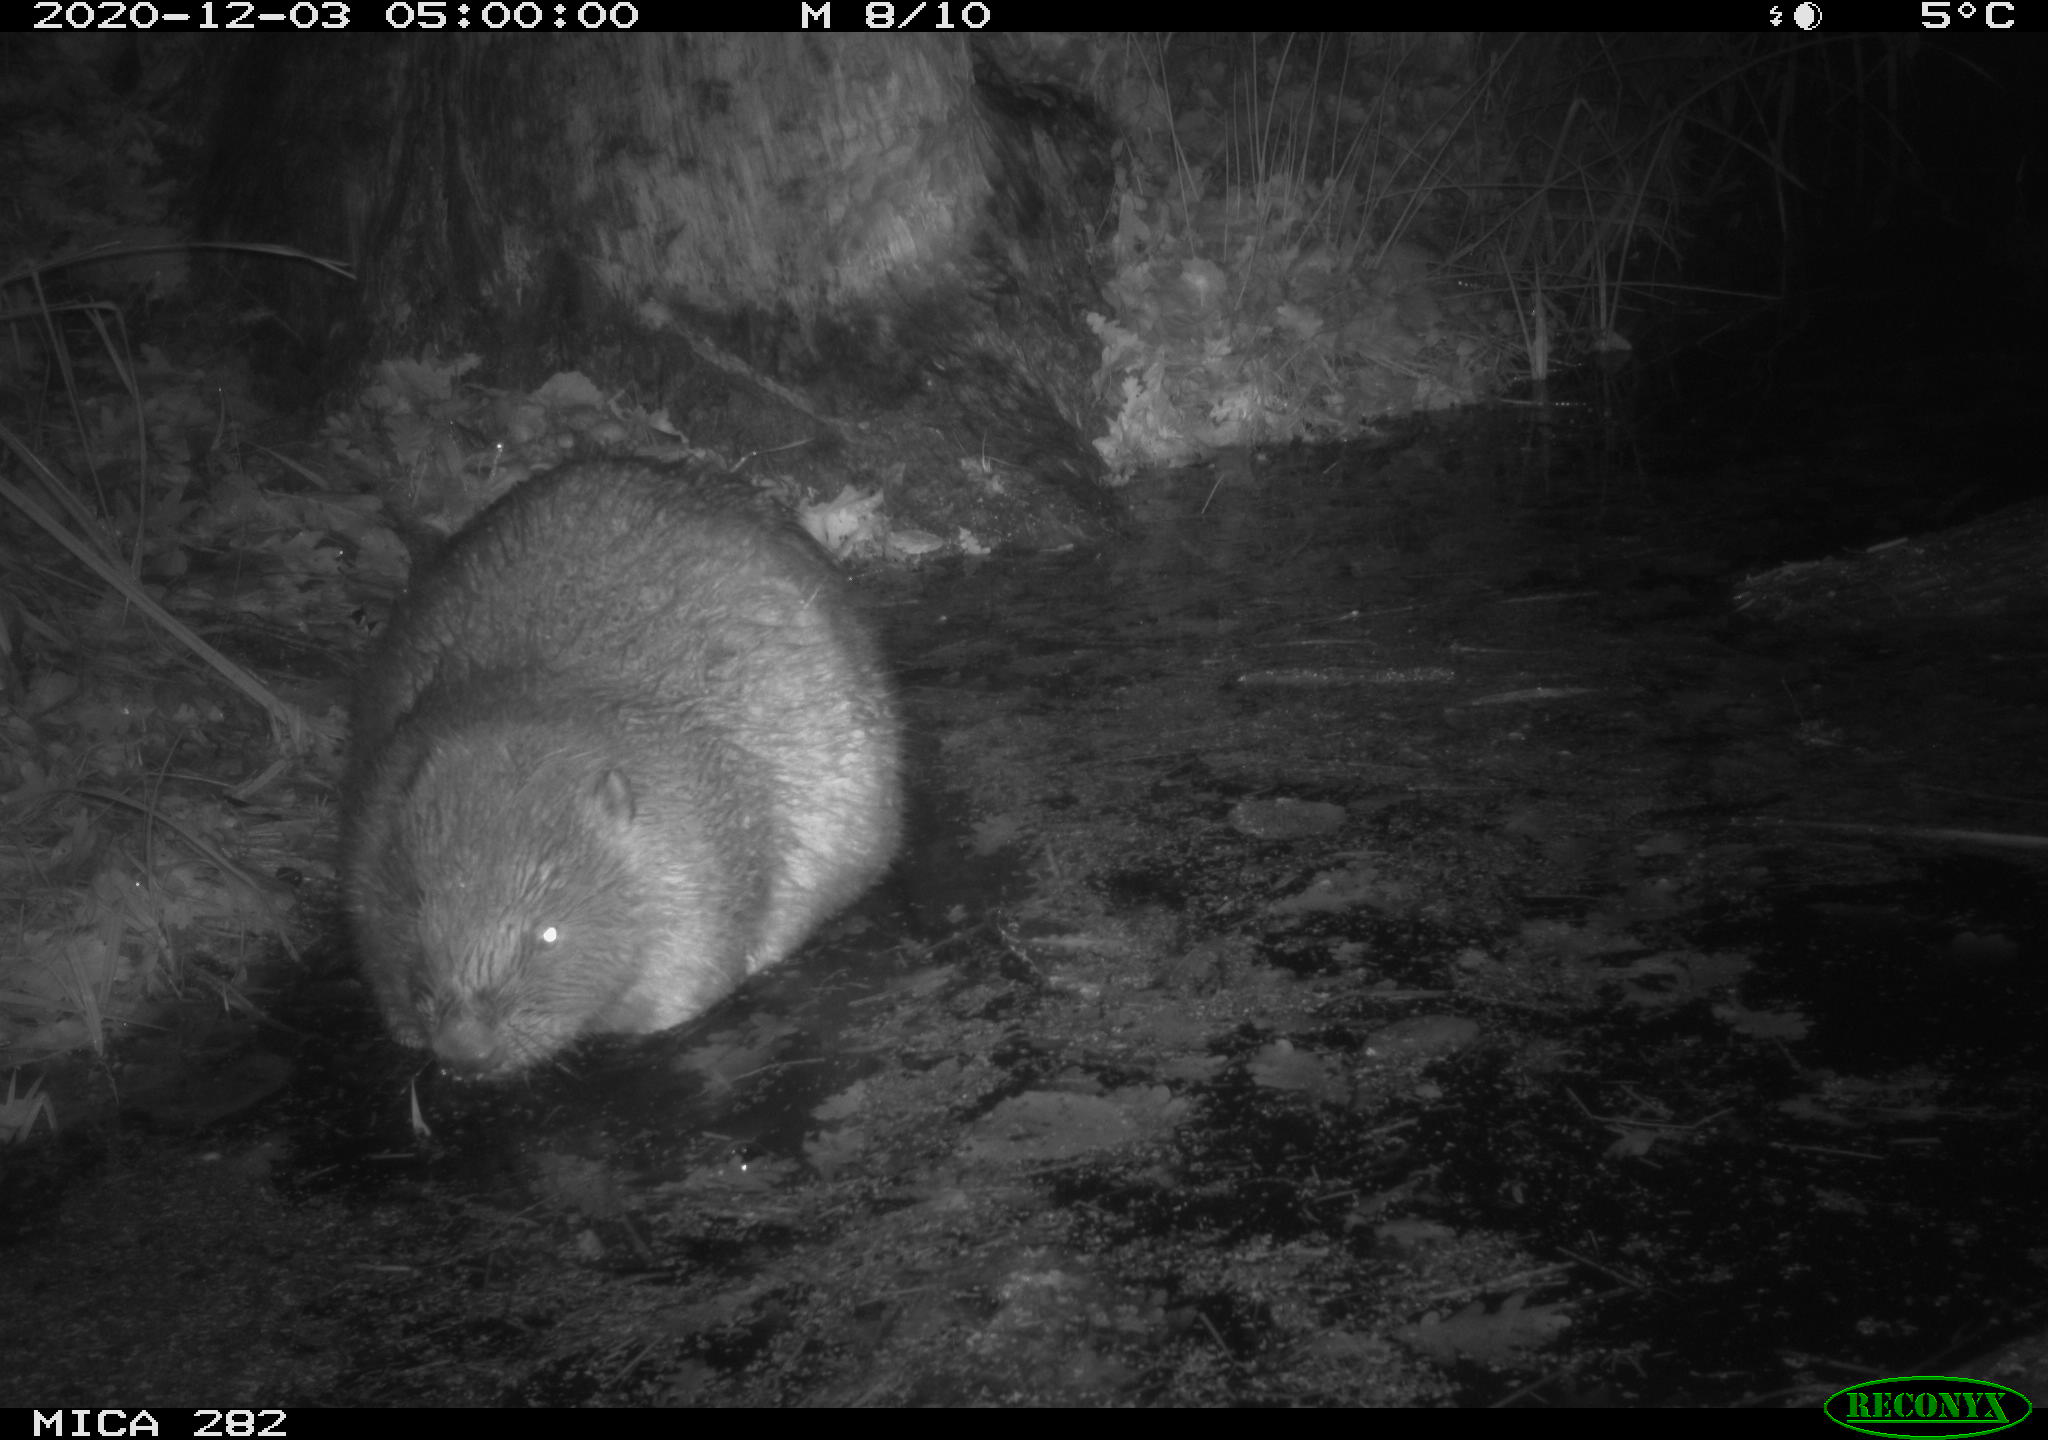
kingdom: Animalia
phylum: Chordata
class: Mammalia
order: Rodentia
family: Castoridae
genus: Castor
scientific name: Castor fiber
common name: Eurasian beaver
